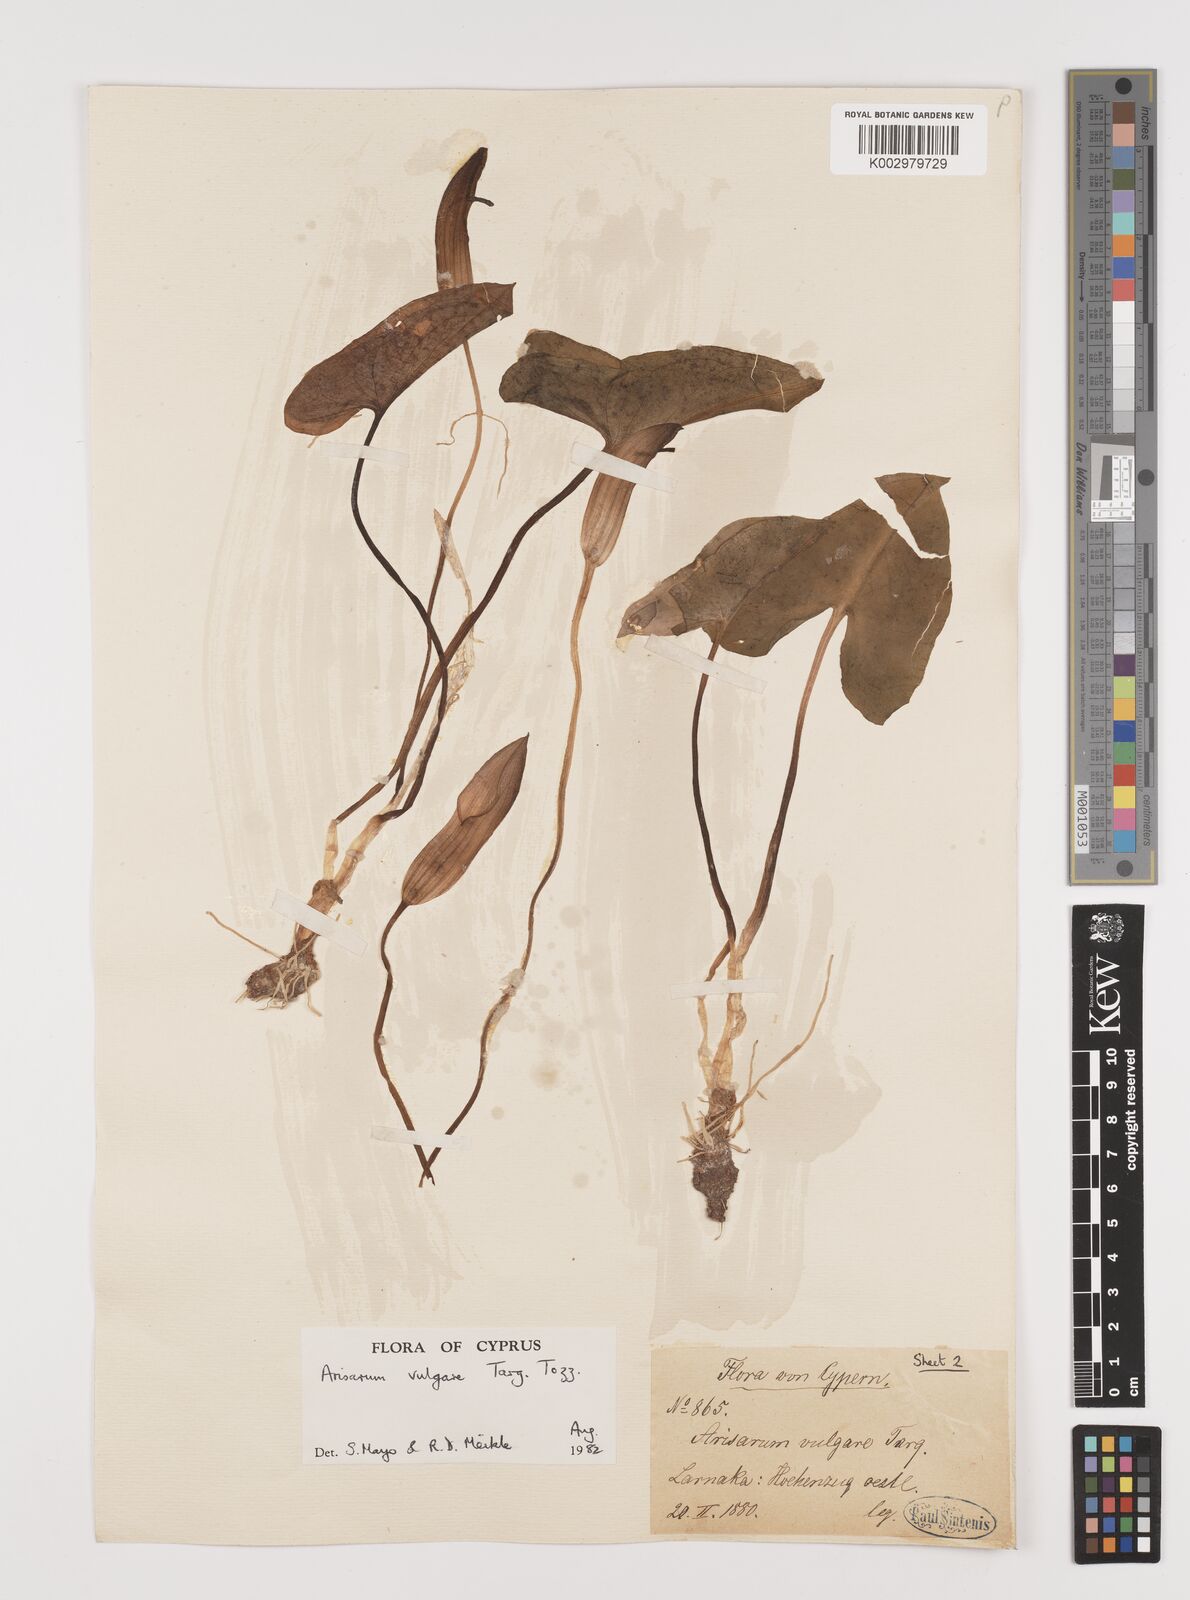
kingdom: Plantae
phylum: Tracheophyta
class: Liliopsida
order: Alismatales
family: Araceae
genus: Arisarum
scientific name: Arisarum vulgare
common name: Common arisarum
